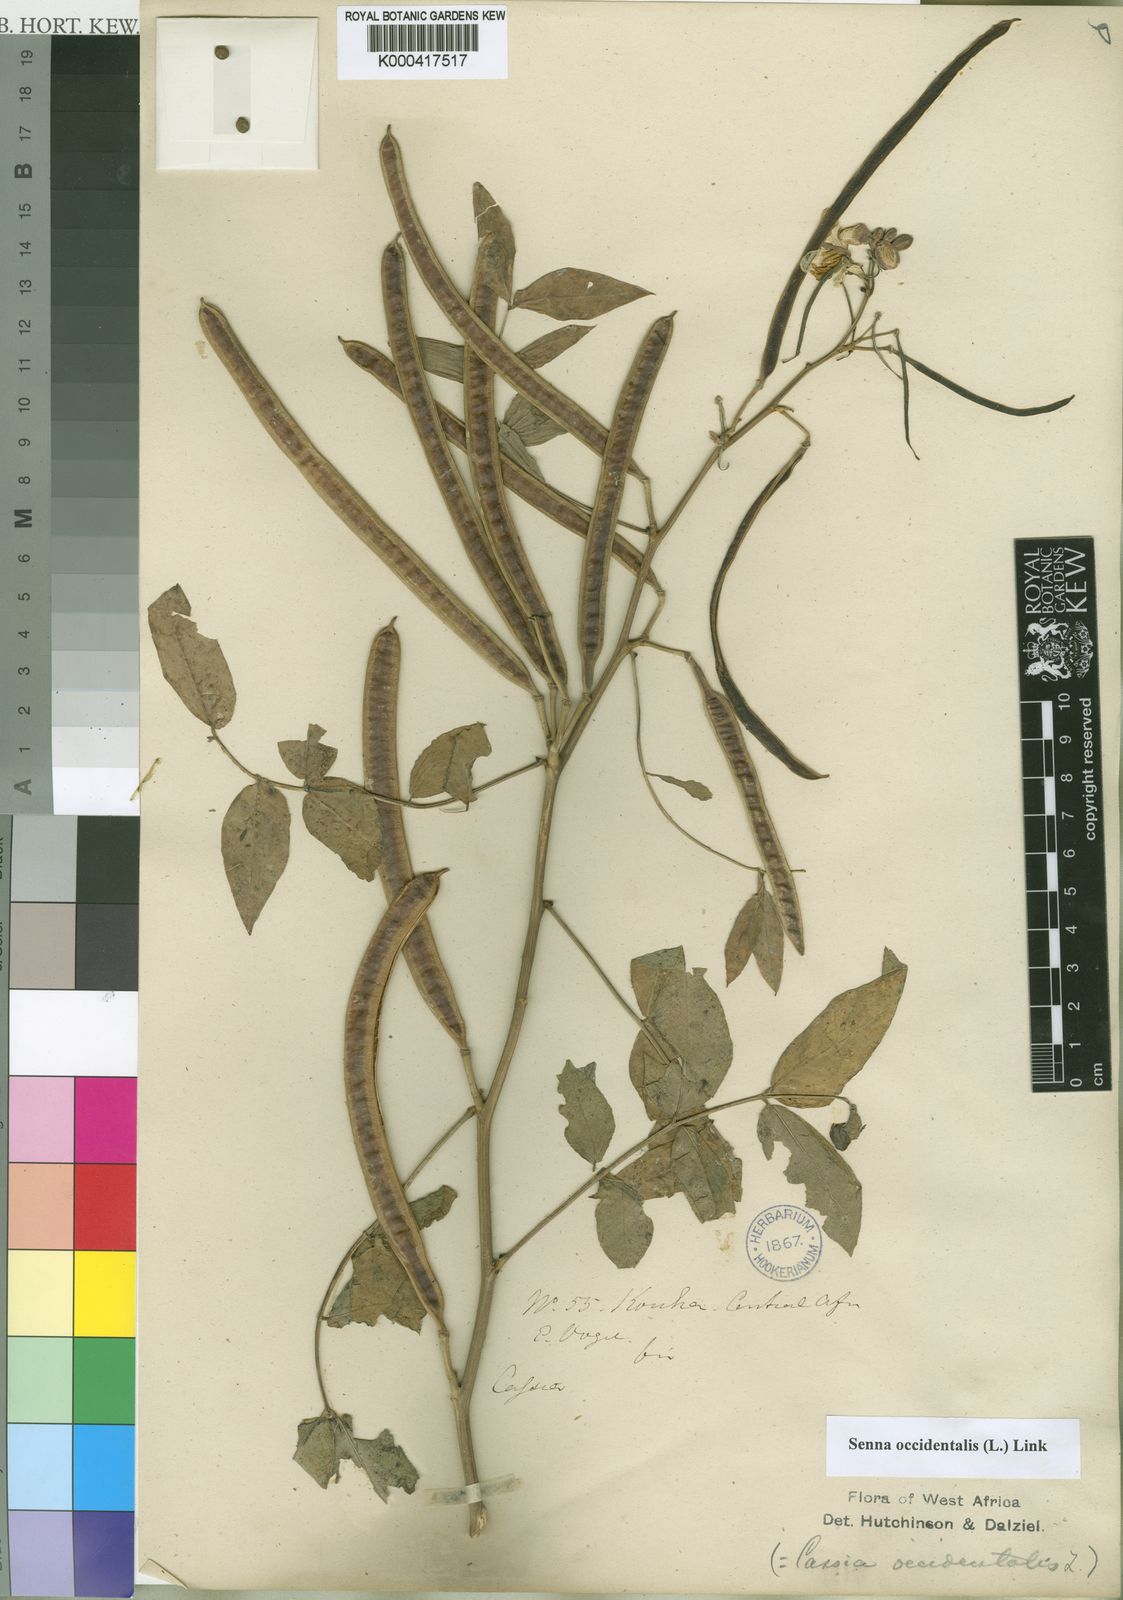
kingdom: Plantae
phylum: Tracheophyta
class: Magnoliopsida
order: Fabales
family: Fabaceae
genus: Senna
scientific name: Senna occidentalis
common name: Septicweed
